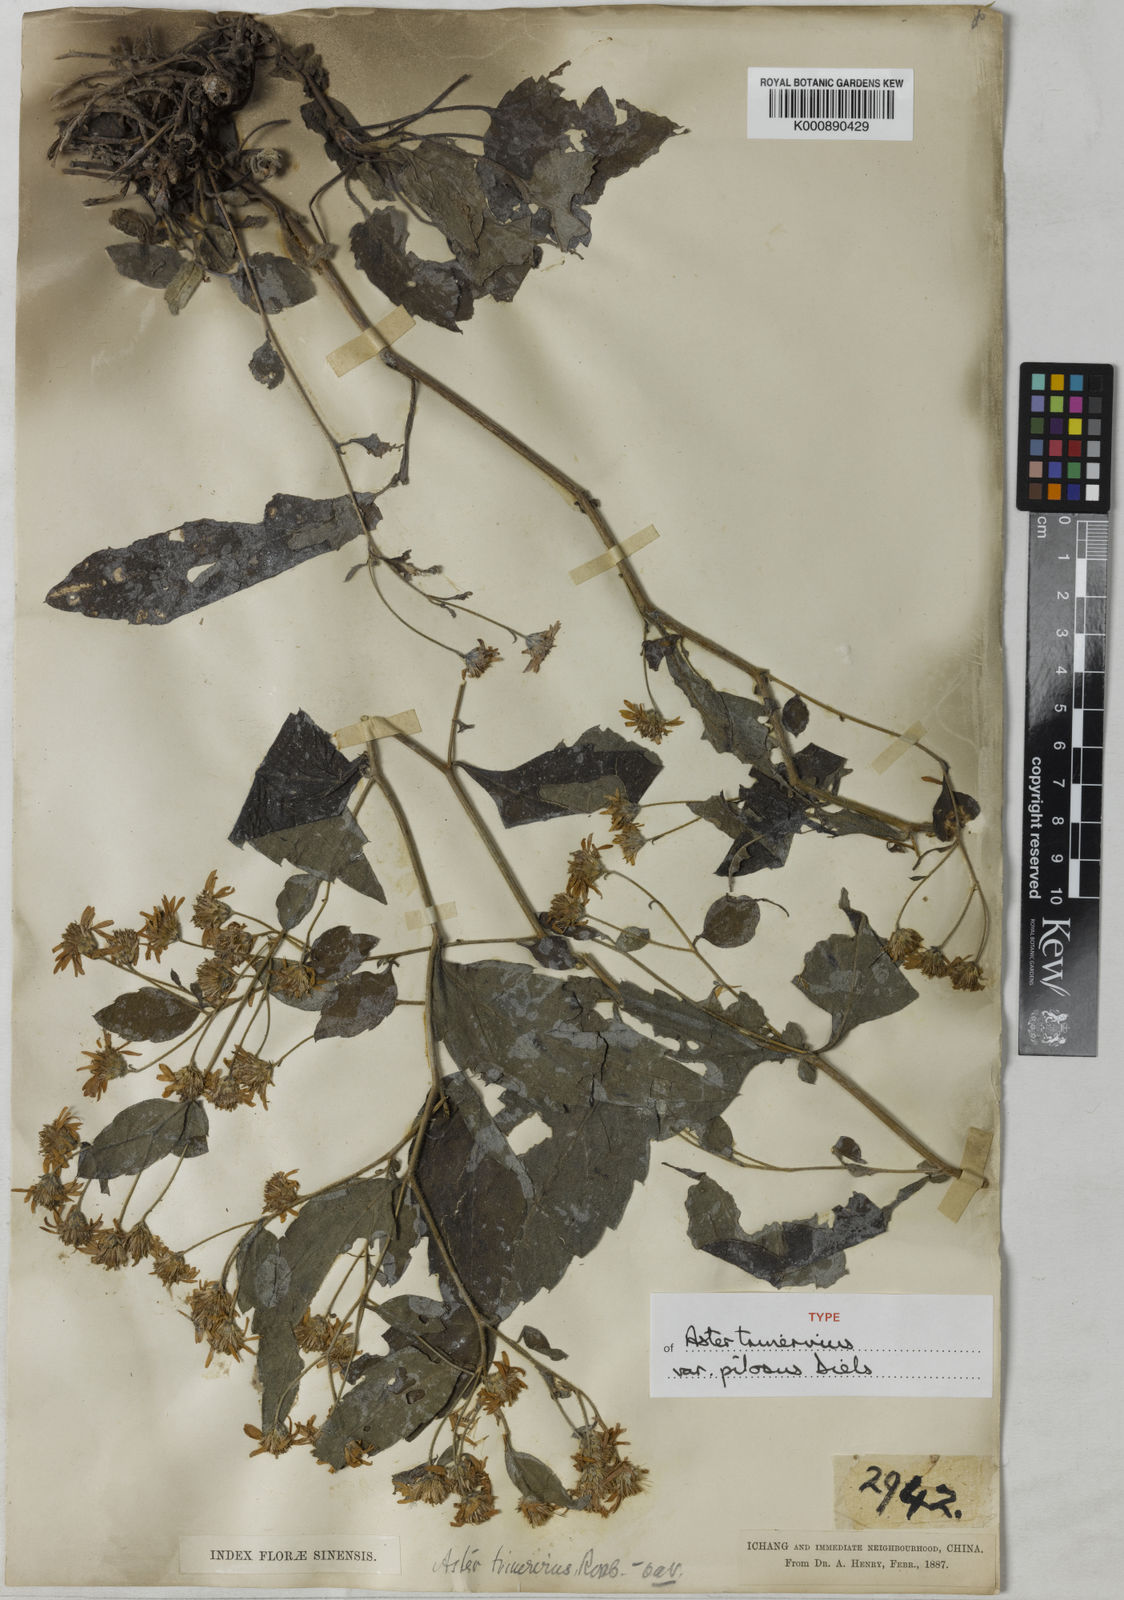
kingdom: Plantae
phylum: Tracheophyta
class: Magnoliopsida
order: Asterales
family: Asteraceae
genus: Aster
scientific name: Aster
